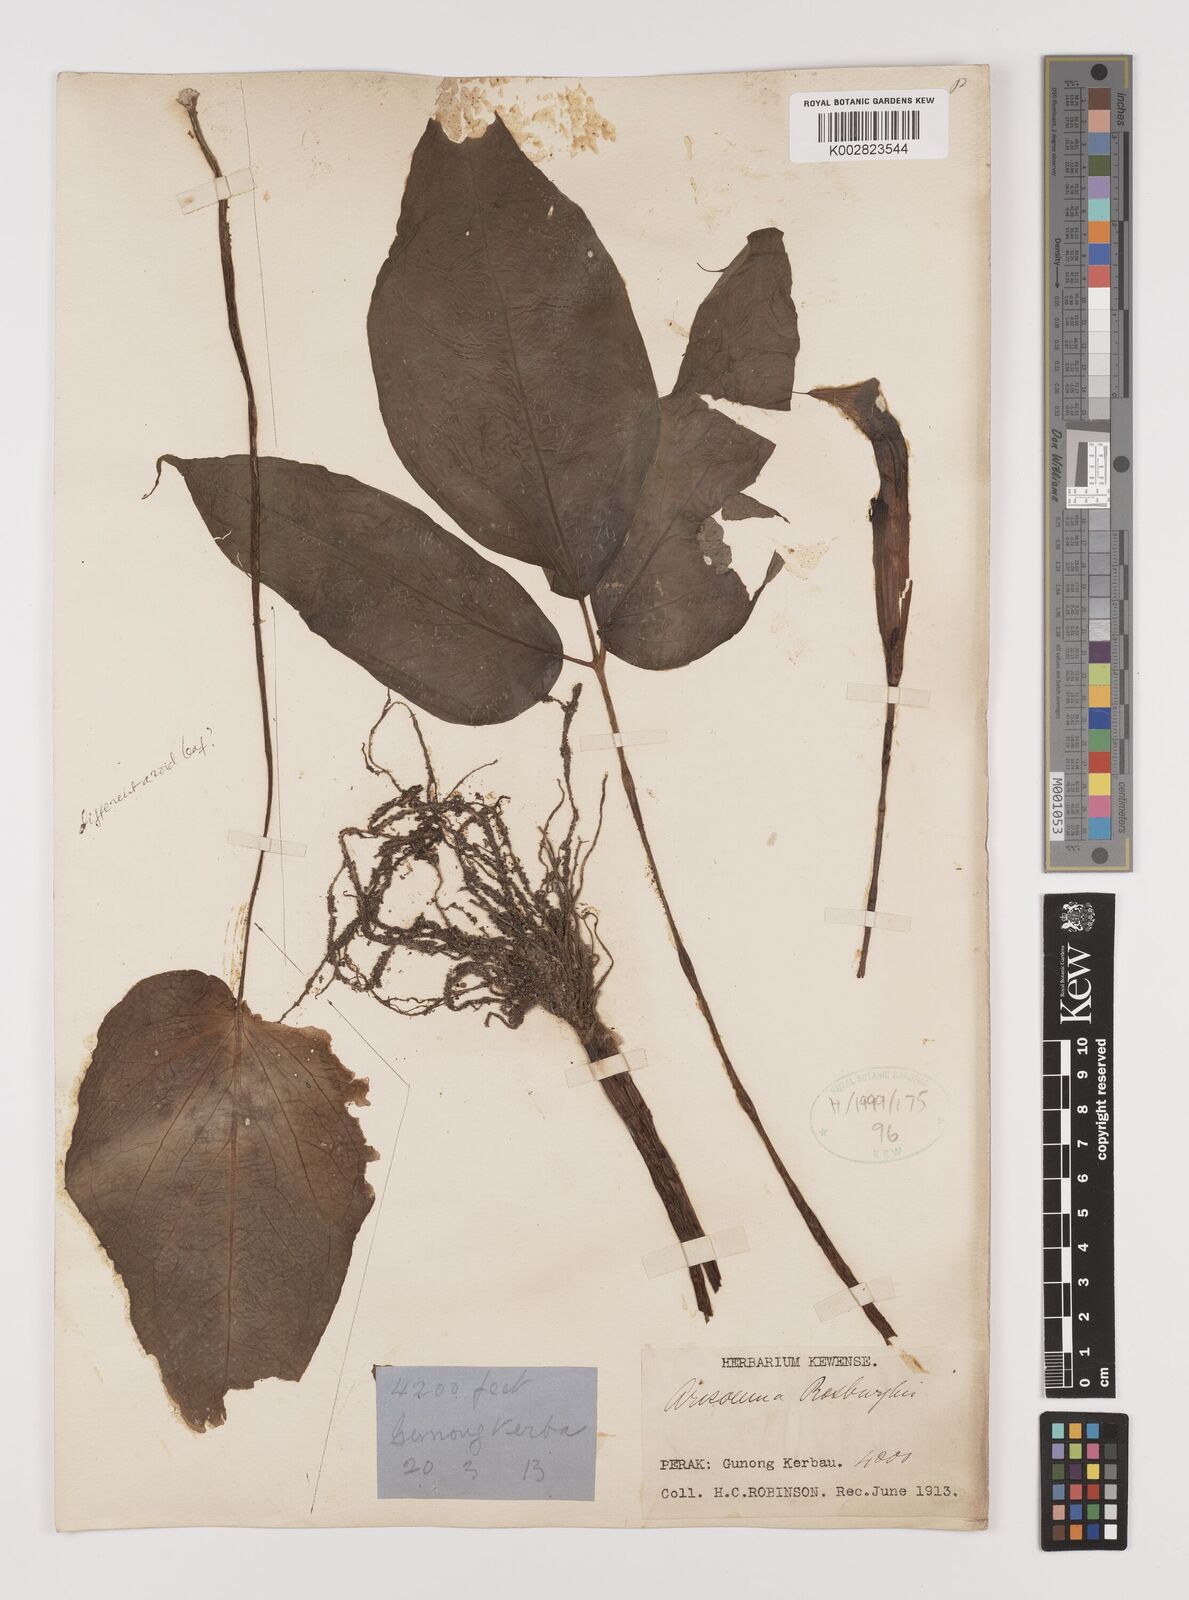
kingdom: Plantae
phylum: Tracheophyta
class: Liliopsida
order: Alismatales
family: Araceae
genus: Arisaema
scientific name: Arisaema roxburghii
